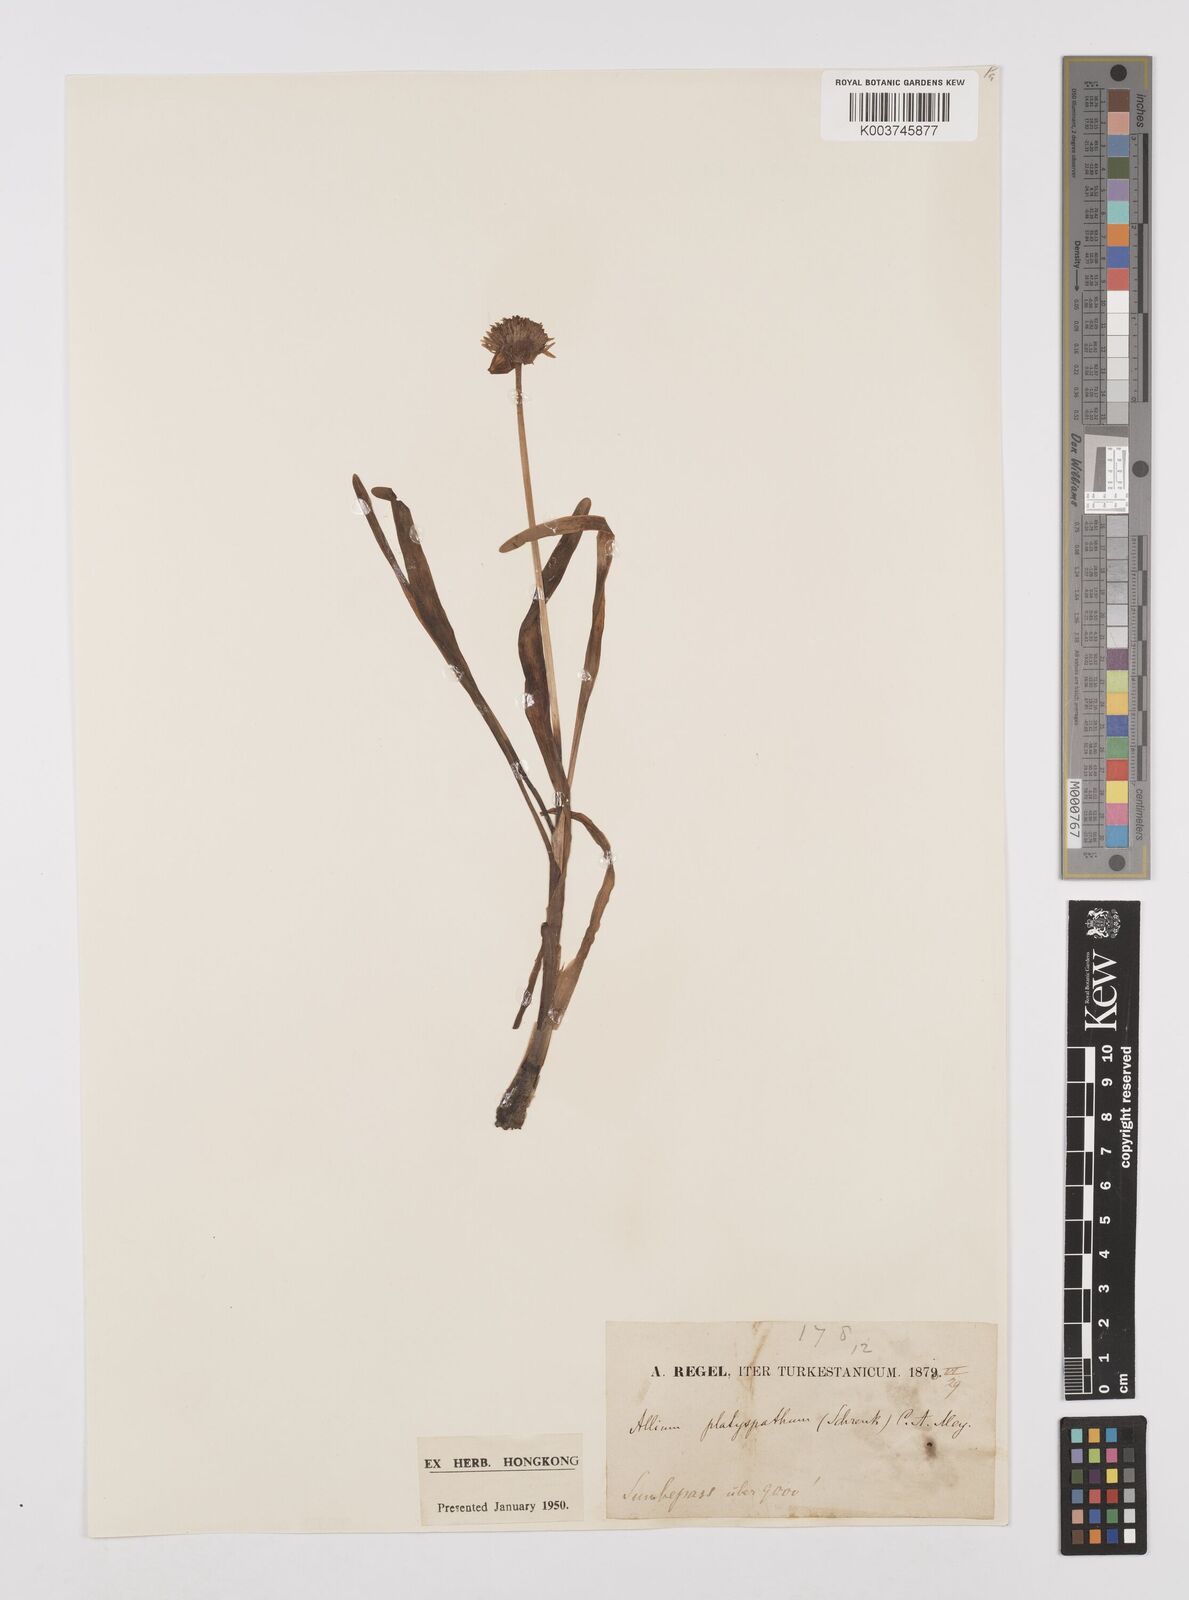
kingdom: Plantae
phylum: Tracheophyta
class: Liliopsida
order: Asparagales
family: Amaryllidaceae
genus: Allium
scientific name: Allium platyspathum
